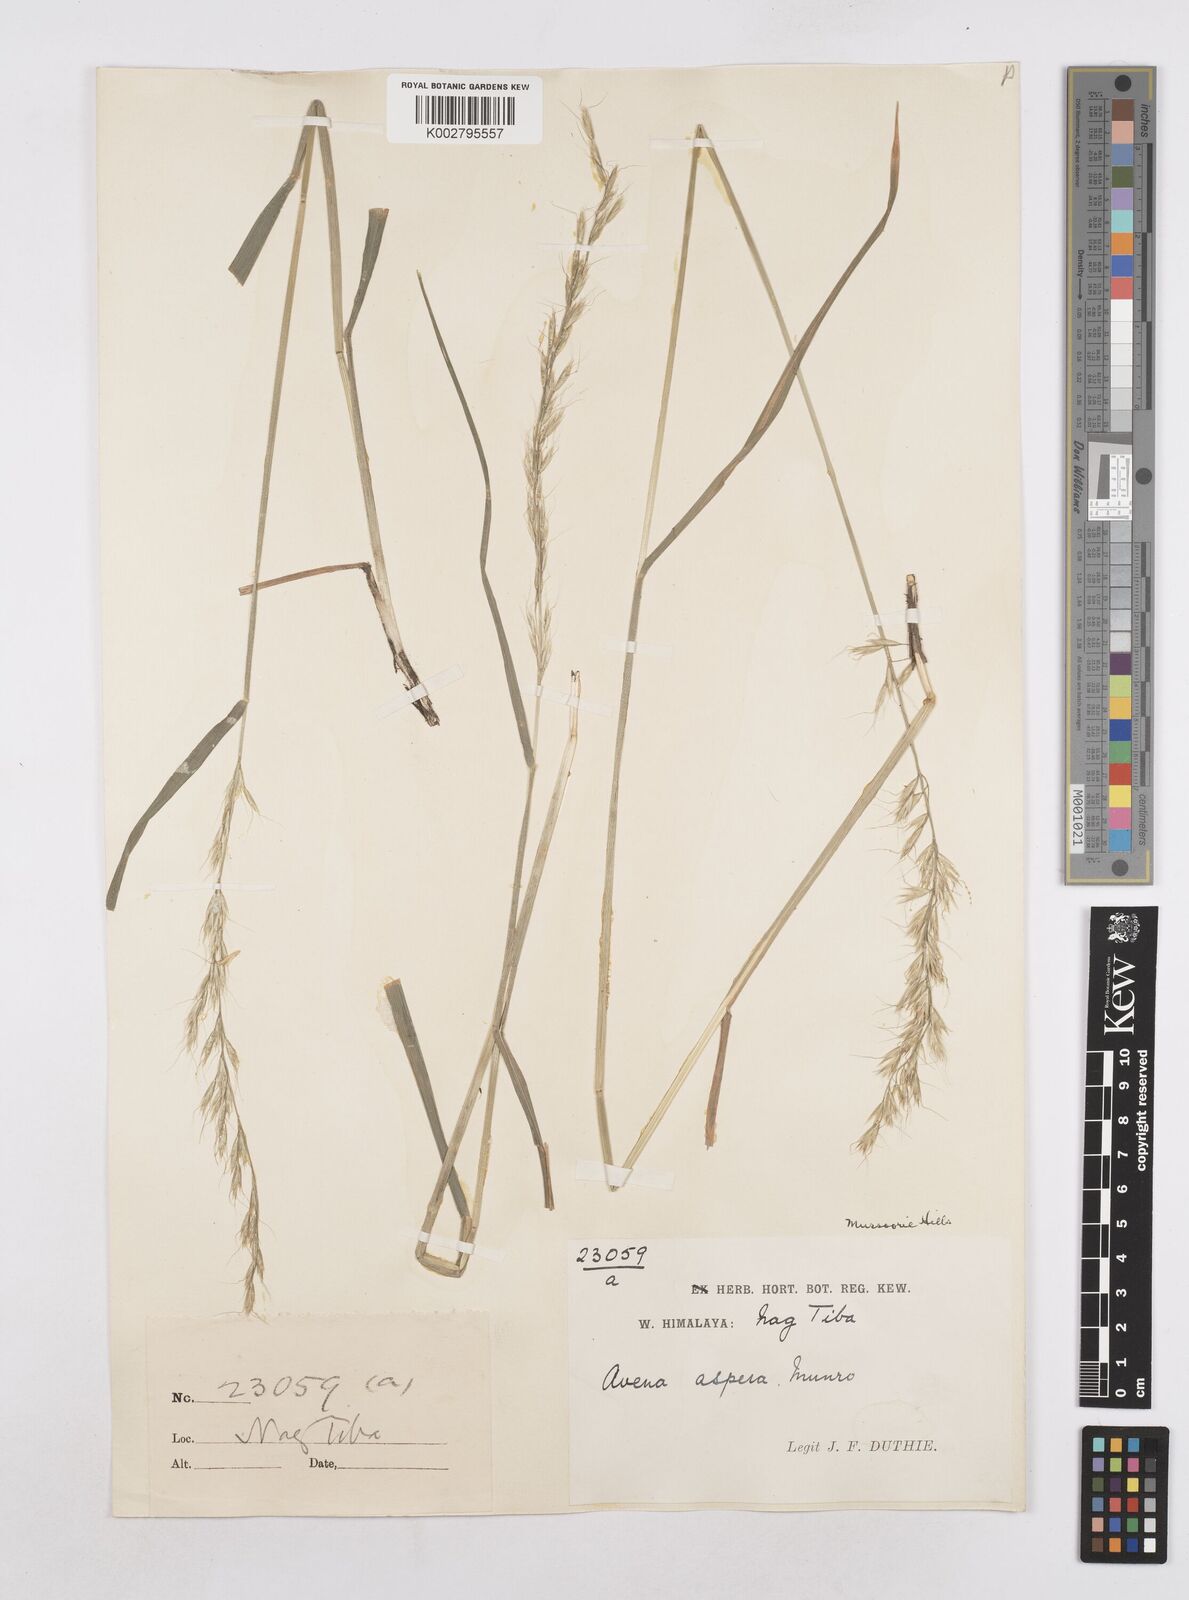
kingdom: Plantae
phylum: Tracheophyta
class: Liliopsida
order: Poales
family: Poaceae
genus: Trisetopsis
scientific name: Trisetopsis junghuhnii
